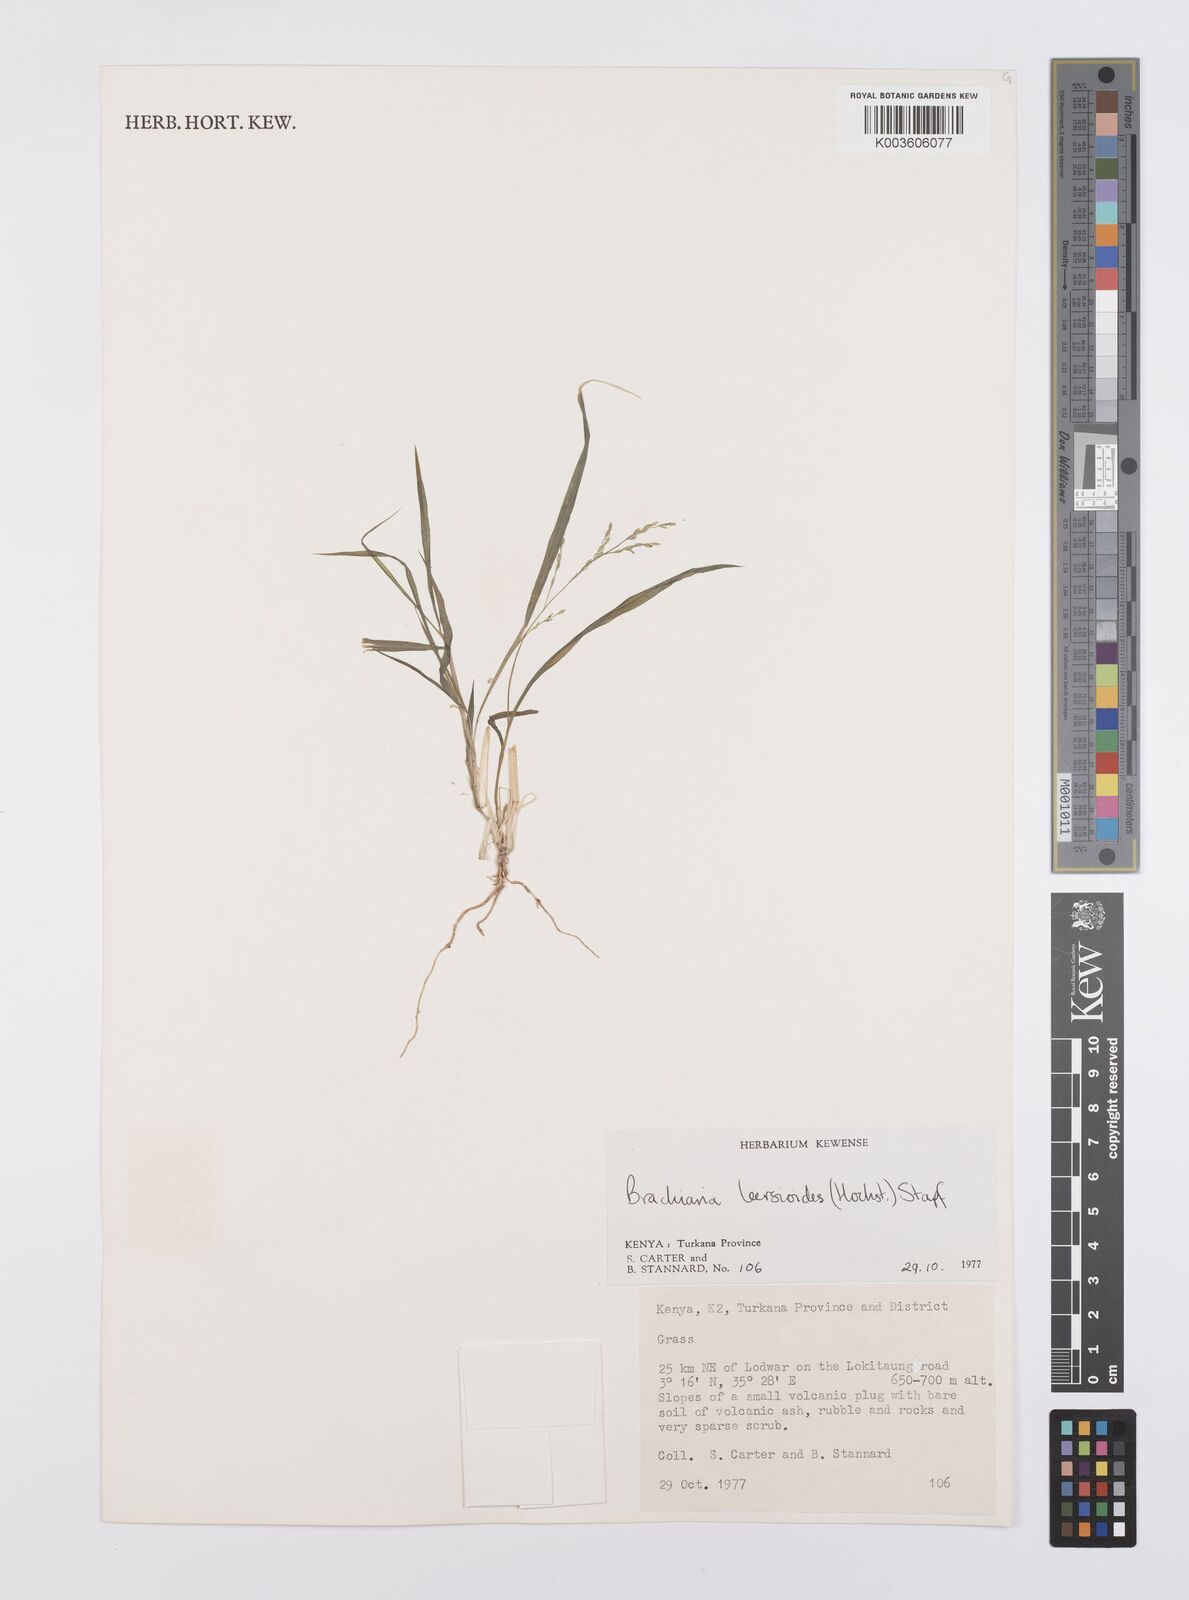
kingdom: Plantae
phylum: Tracheophyta
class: Liliopsida
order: Poales
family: Poaceae
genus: Urochloa
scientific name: Urochloa leersioides
